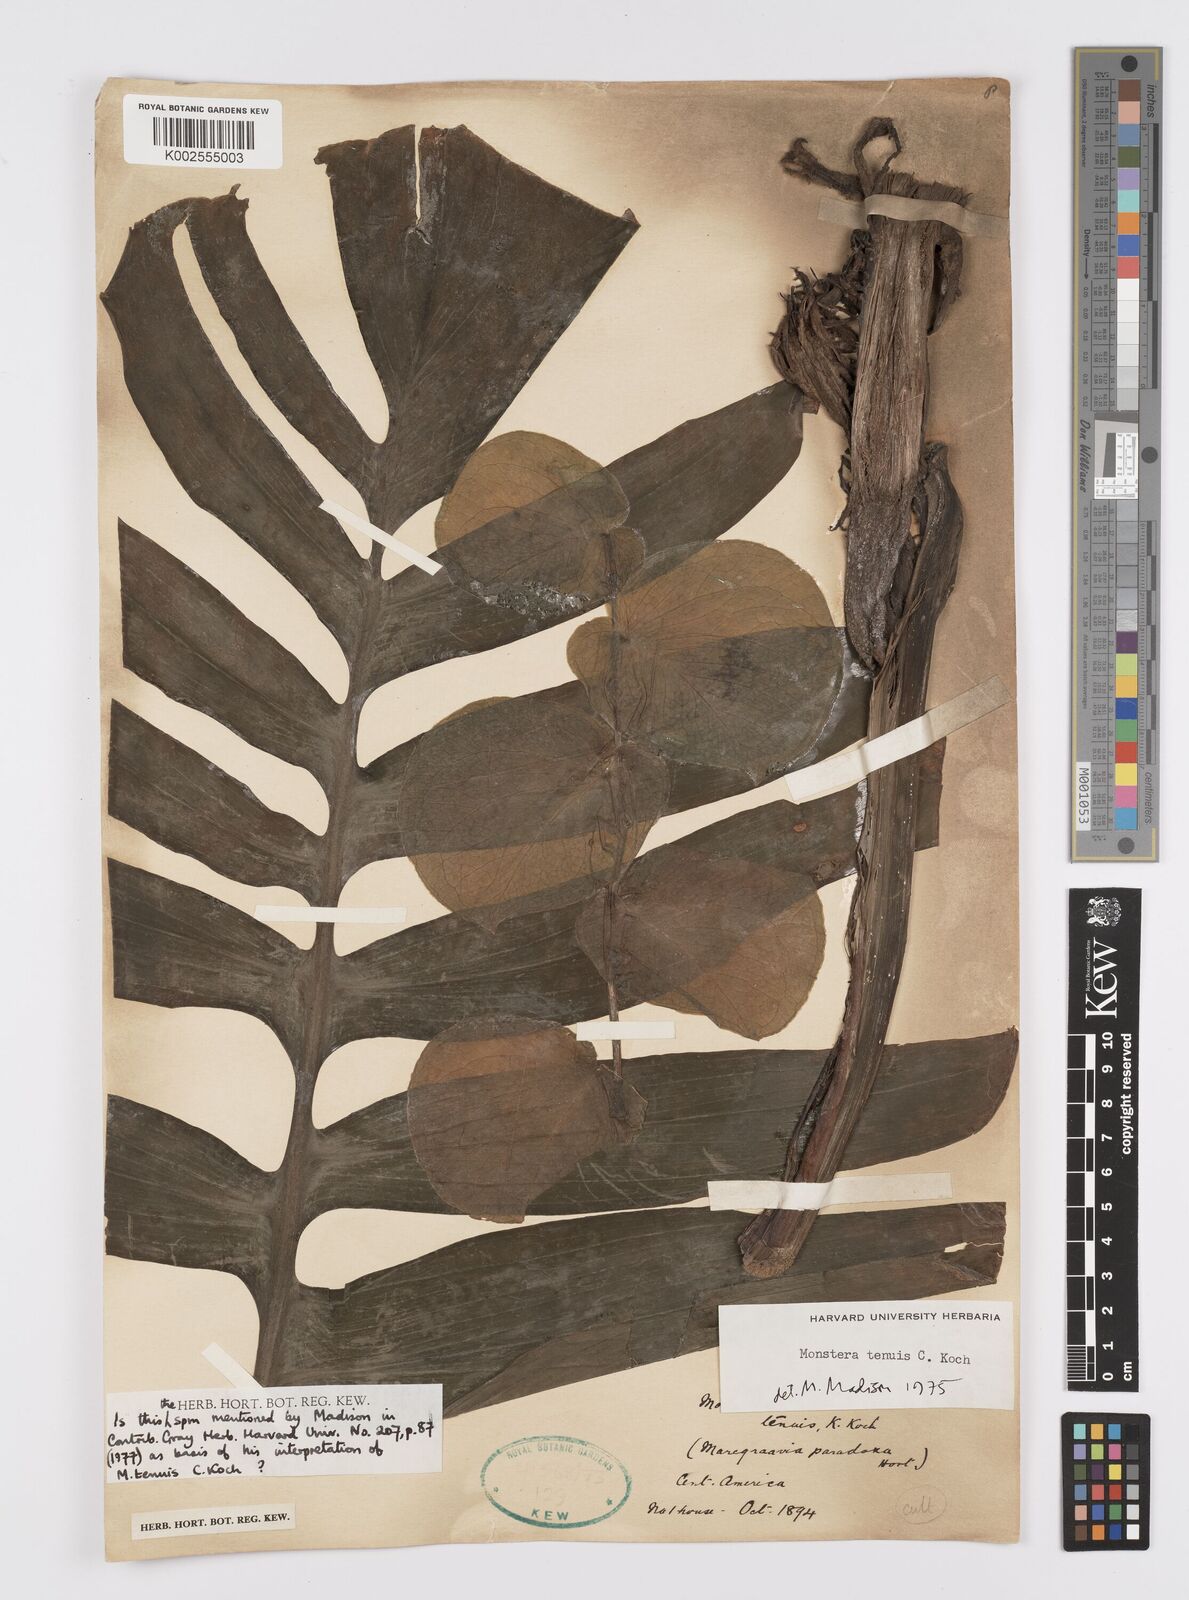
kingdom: Plantae
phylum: Tracheophyta
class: Liliopsida
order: Alismatales
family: Araceae
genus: Monstera
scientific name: Monstera tenuis
